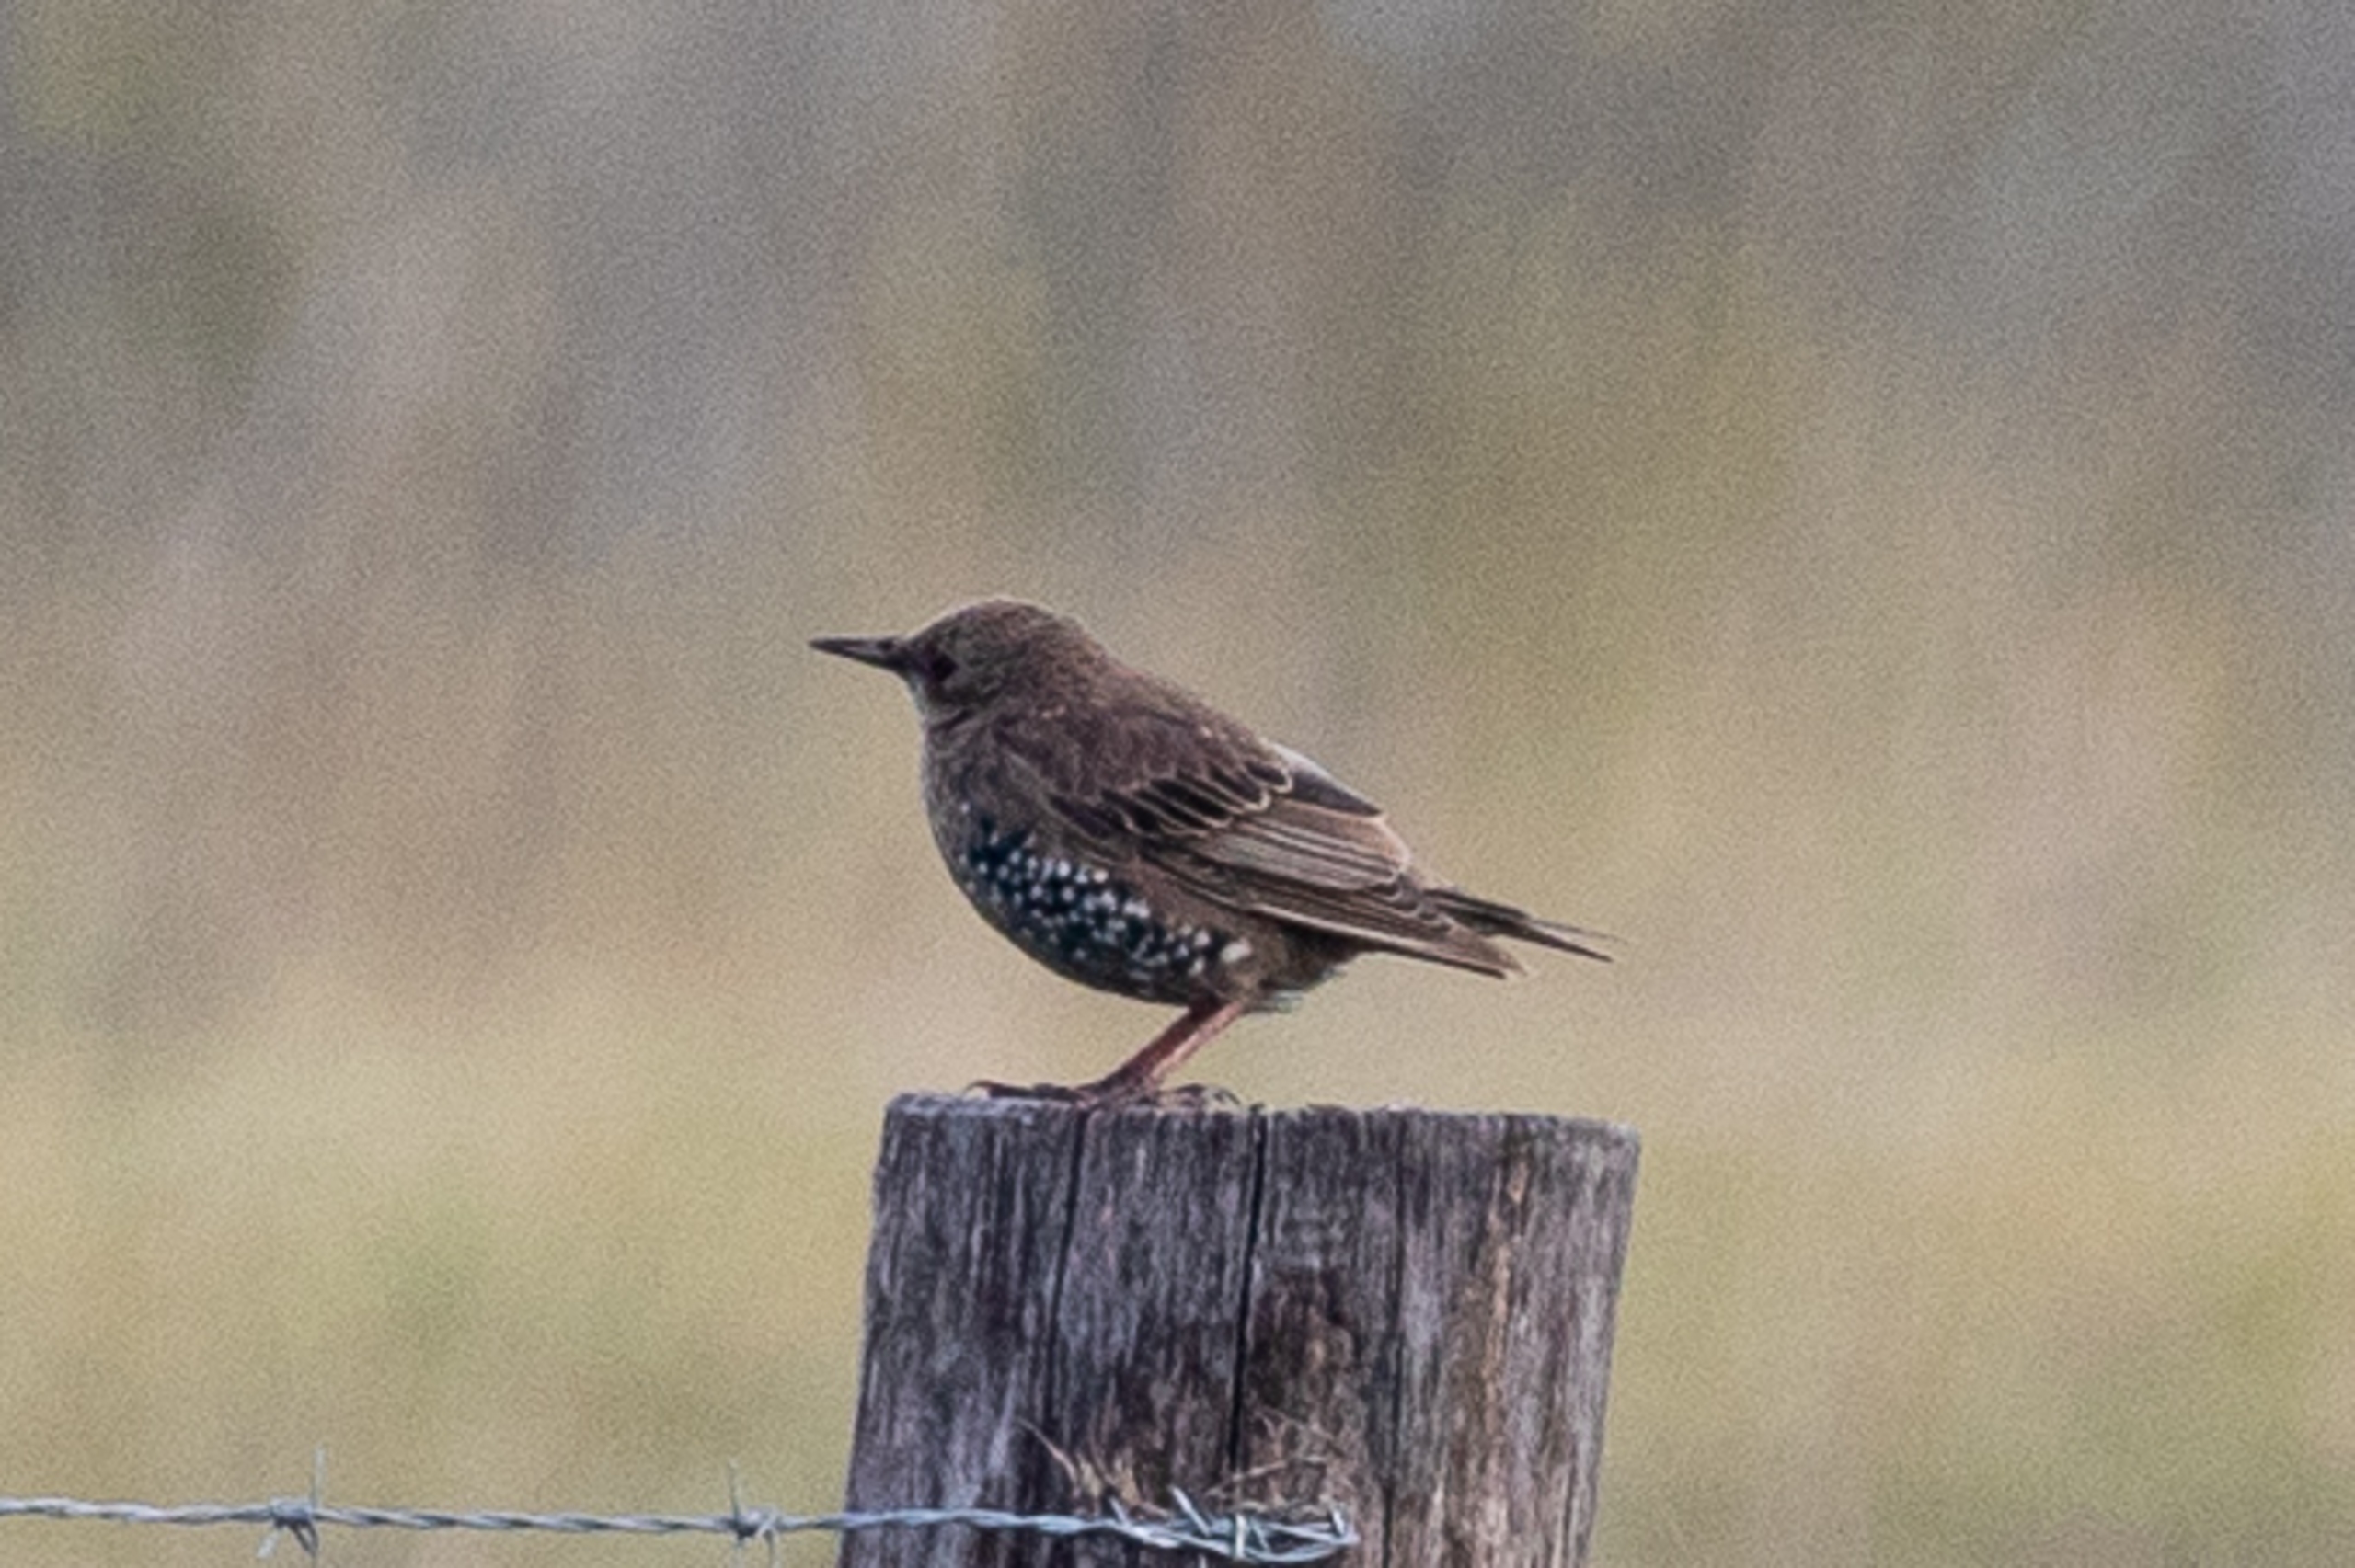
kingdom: Animalia
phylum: Chordata
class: Aves
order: Passeriformes
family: Sturnidae
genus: Sturnus
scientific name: Sturnus vulgaris
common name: Stær
